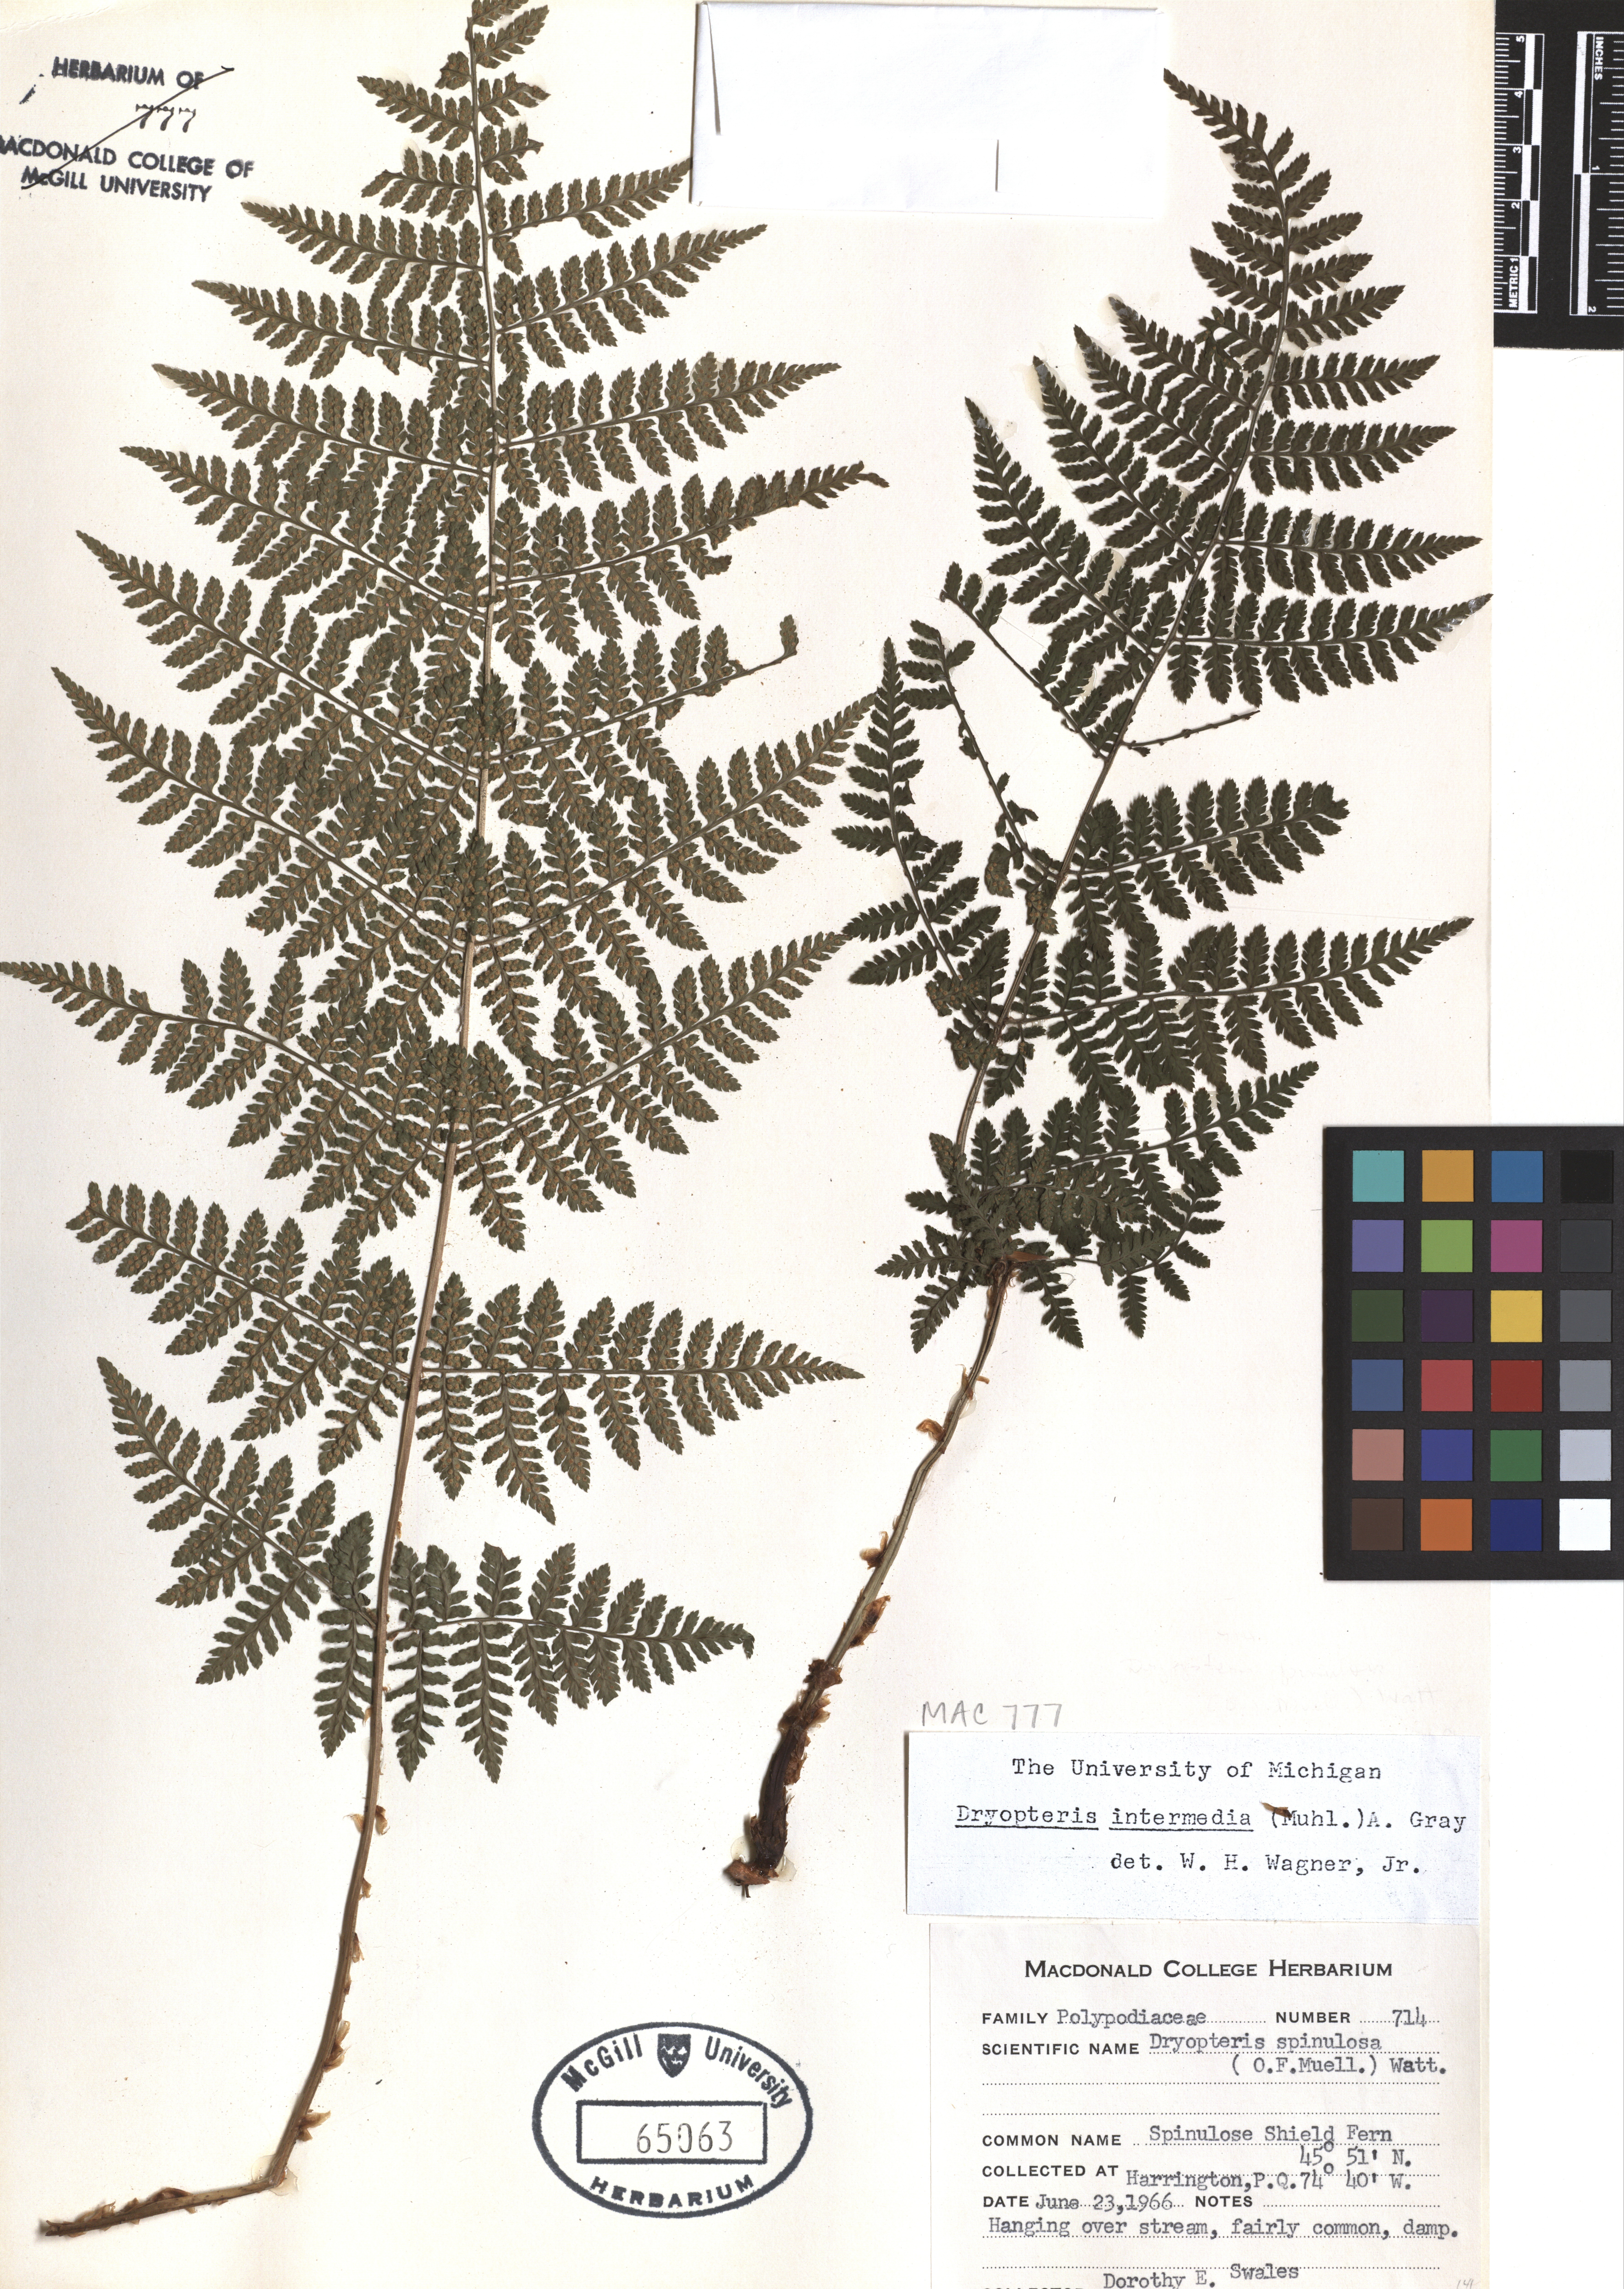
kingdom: Plantae
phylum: Tracheophyta
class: Polypodiopsida
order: Polypodiales
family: Dryopteridaceae
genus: Dryopteris
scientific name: Dryopteris intermedia
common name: Evergreen wood fern
